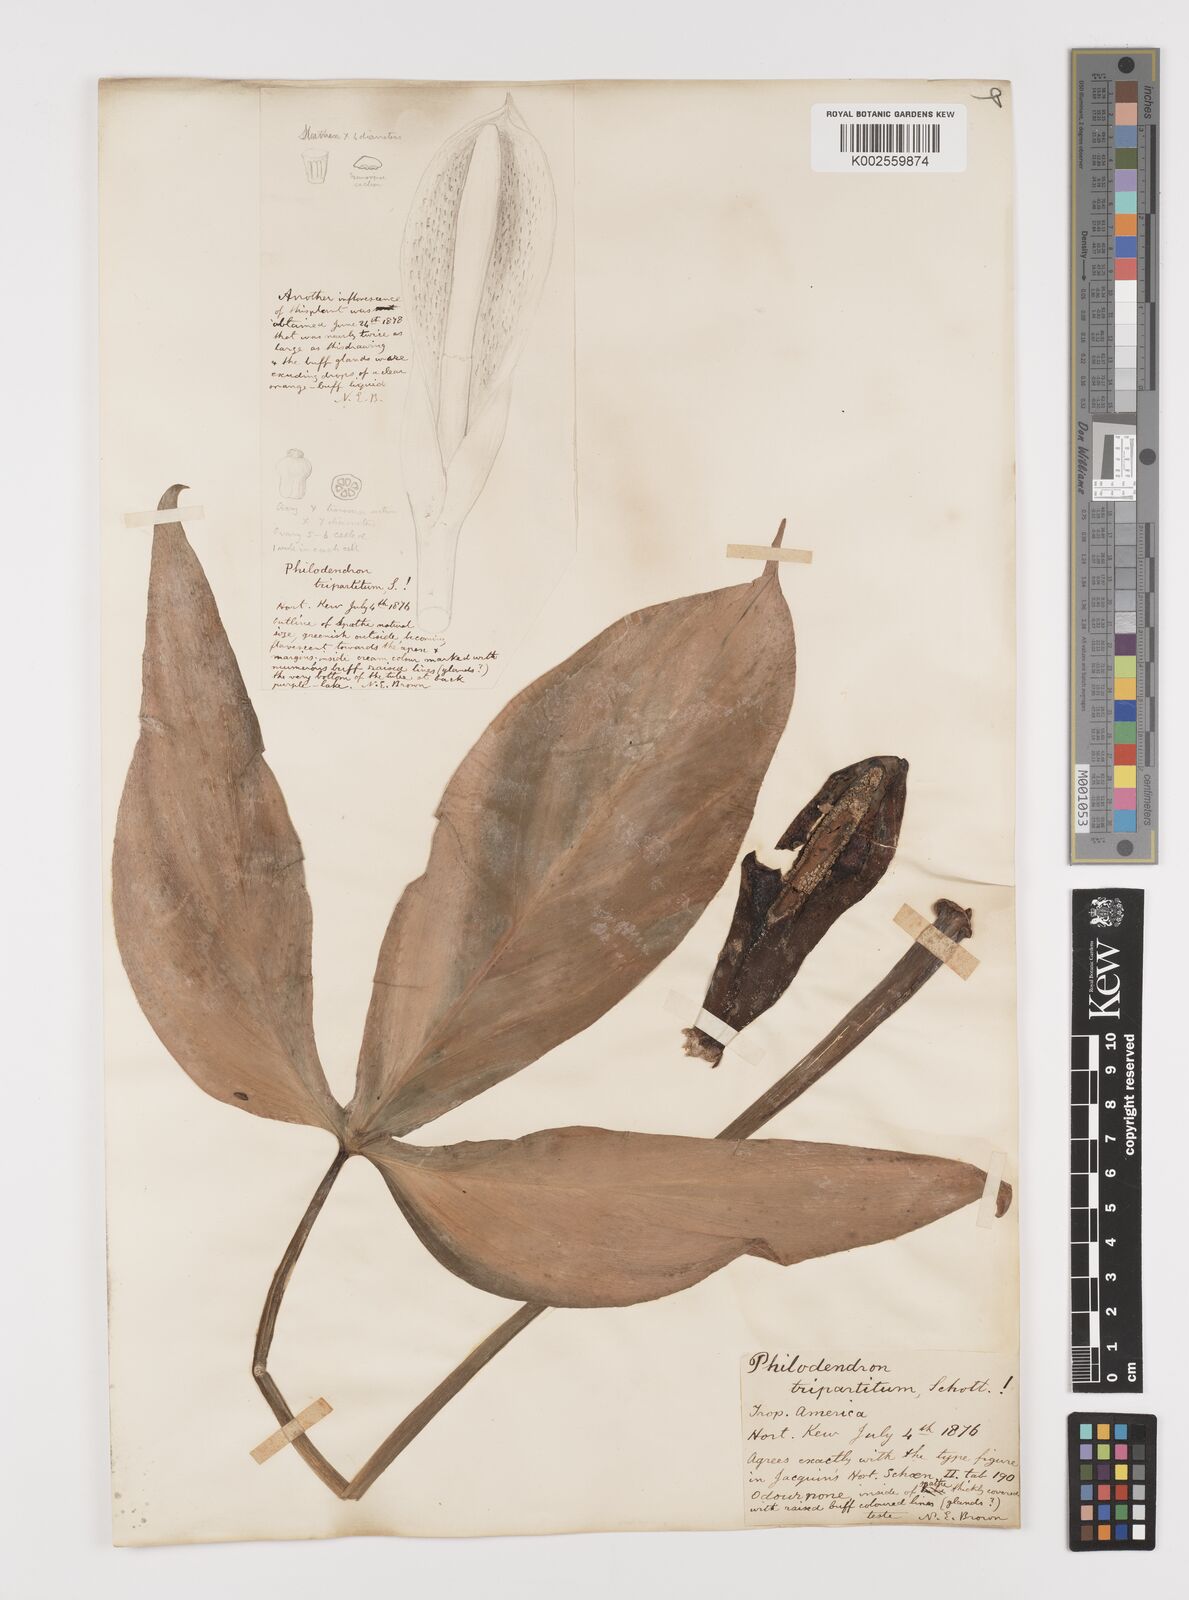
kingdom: Plantae
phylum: Tracheophyta
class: Liliopsida
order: Alismatales
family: Araceae
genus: Philodendron
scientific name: Philodendron tripartitum
